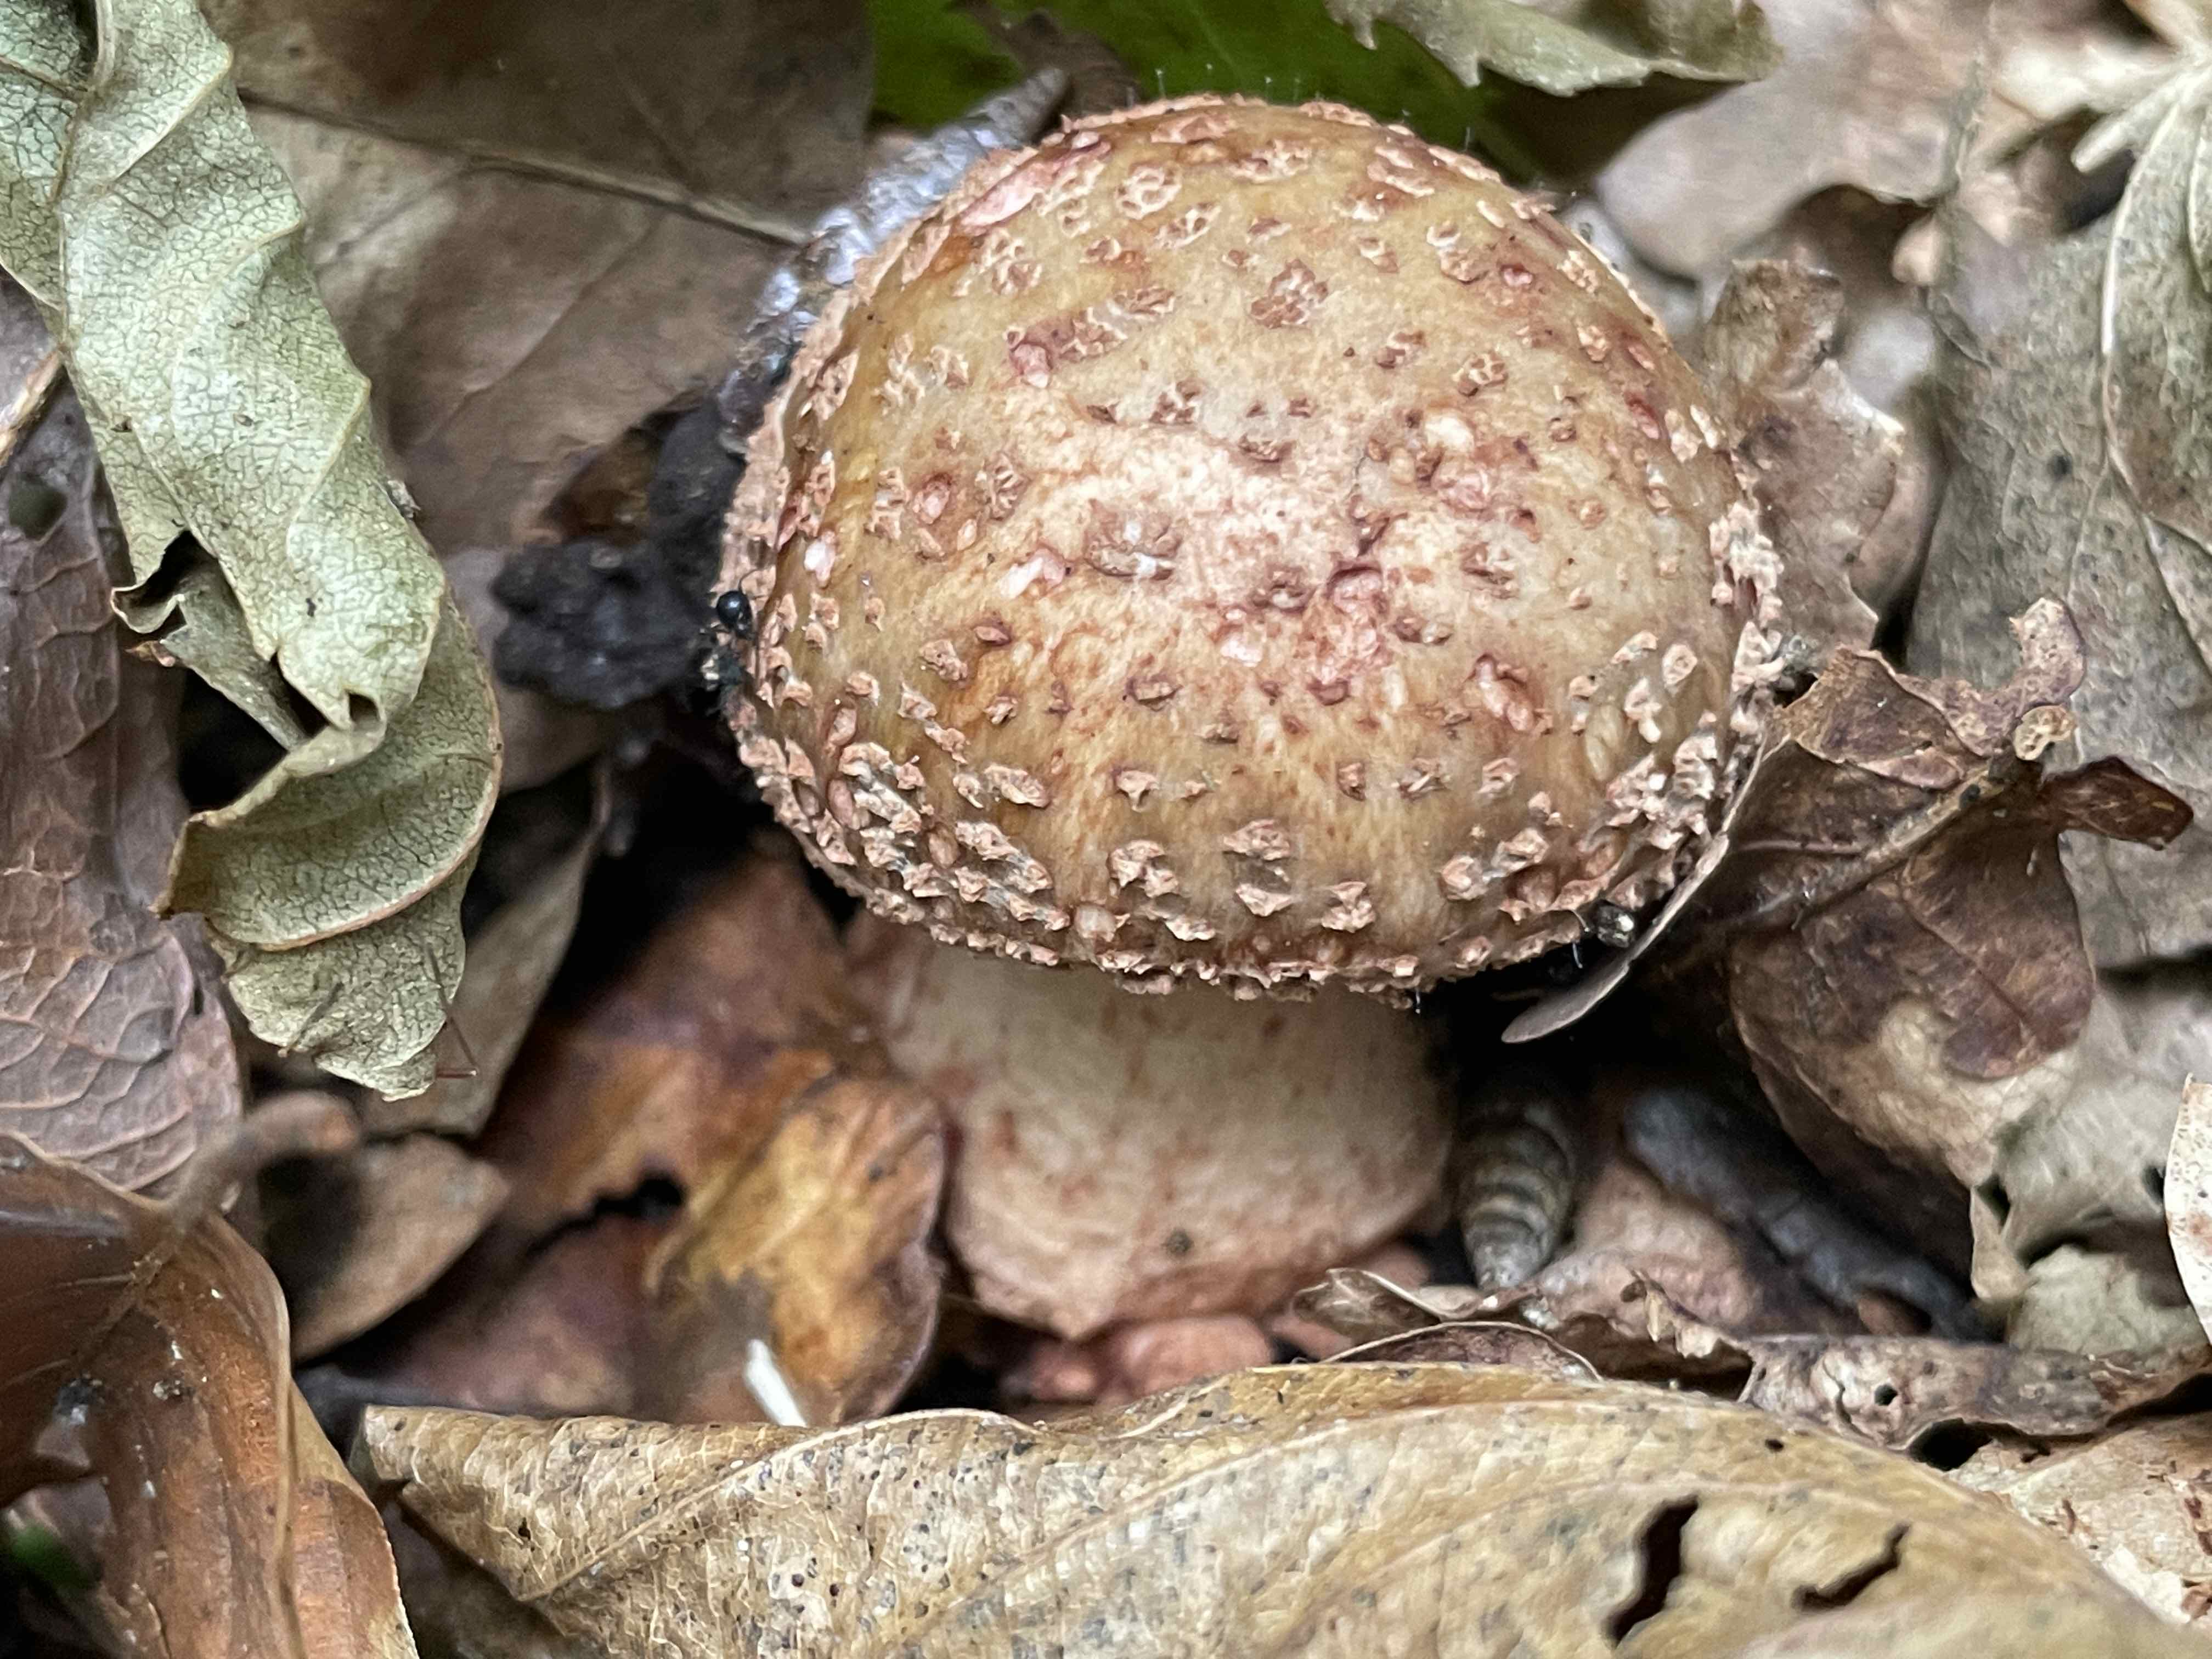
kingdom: Fungi
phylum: Basidiomycota
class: Agaricomycetes
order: Agaricales
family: Amanitaceae
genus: Amanita
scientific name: Amanita rubescens
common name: rødmende fluesvamp
